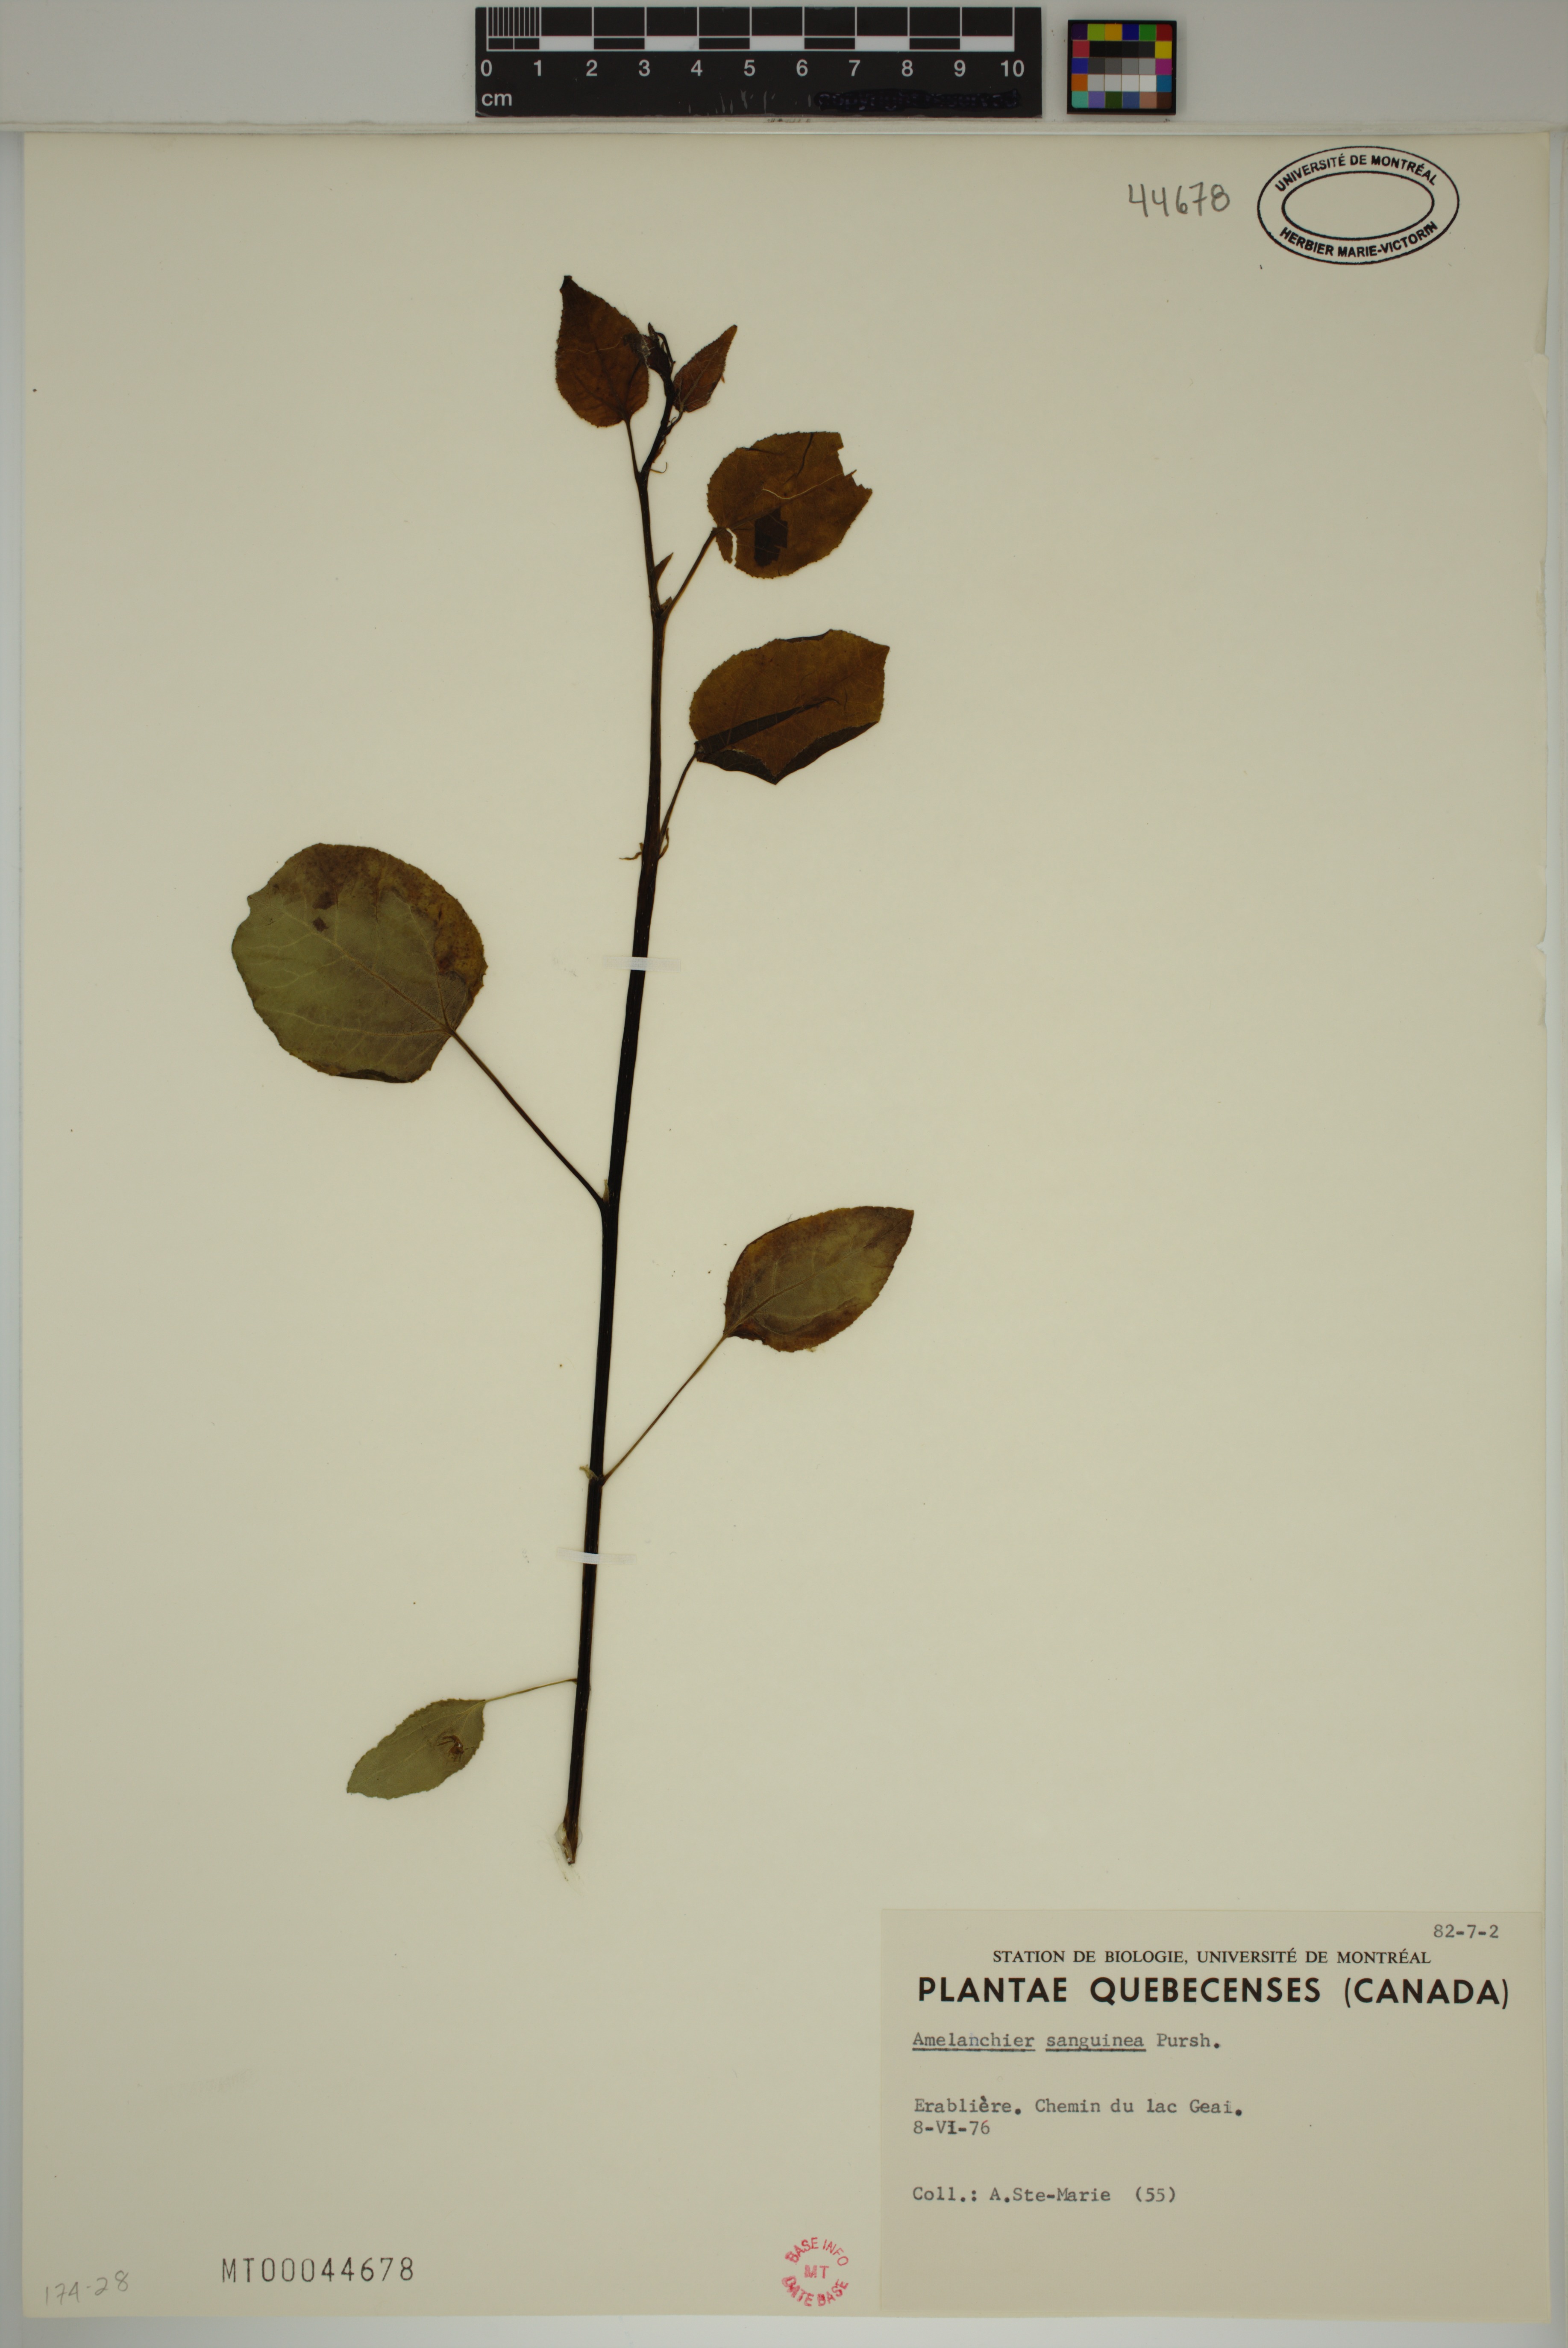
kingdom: Plantae
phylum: Tracheophyta
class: Magnoliopsida
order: Rosales
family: Rosaceae
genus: Amelanchier
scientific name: Amelanchier sanguinea
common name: Huron serviceberry
